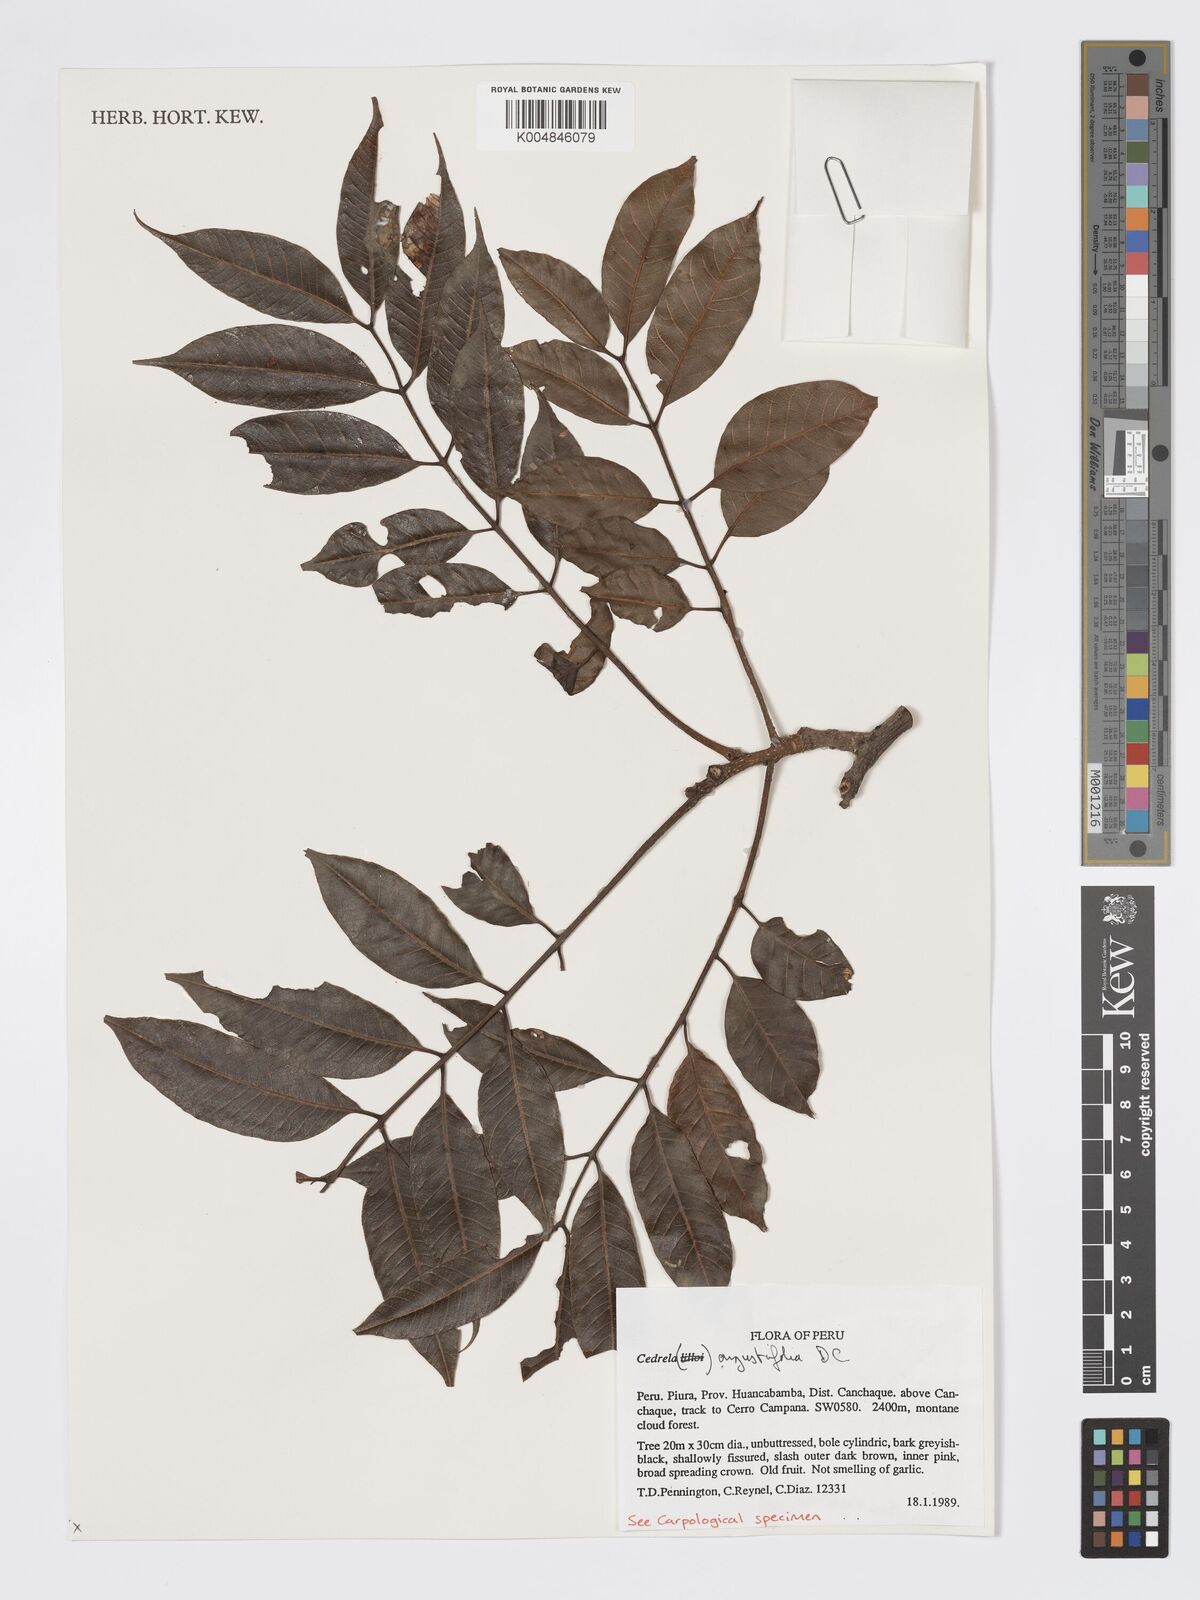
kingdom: Plantae
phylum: Tracheophyta
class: Magnoliopsida
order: Sapindales
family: Meliaceae
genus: Cedrela
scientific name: Cedrela odorata
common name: Red cedar
